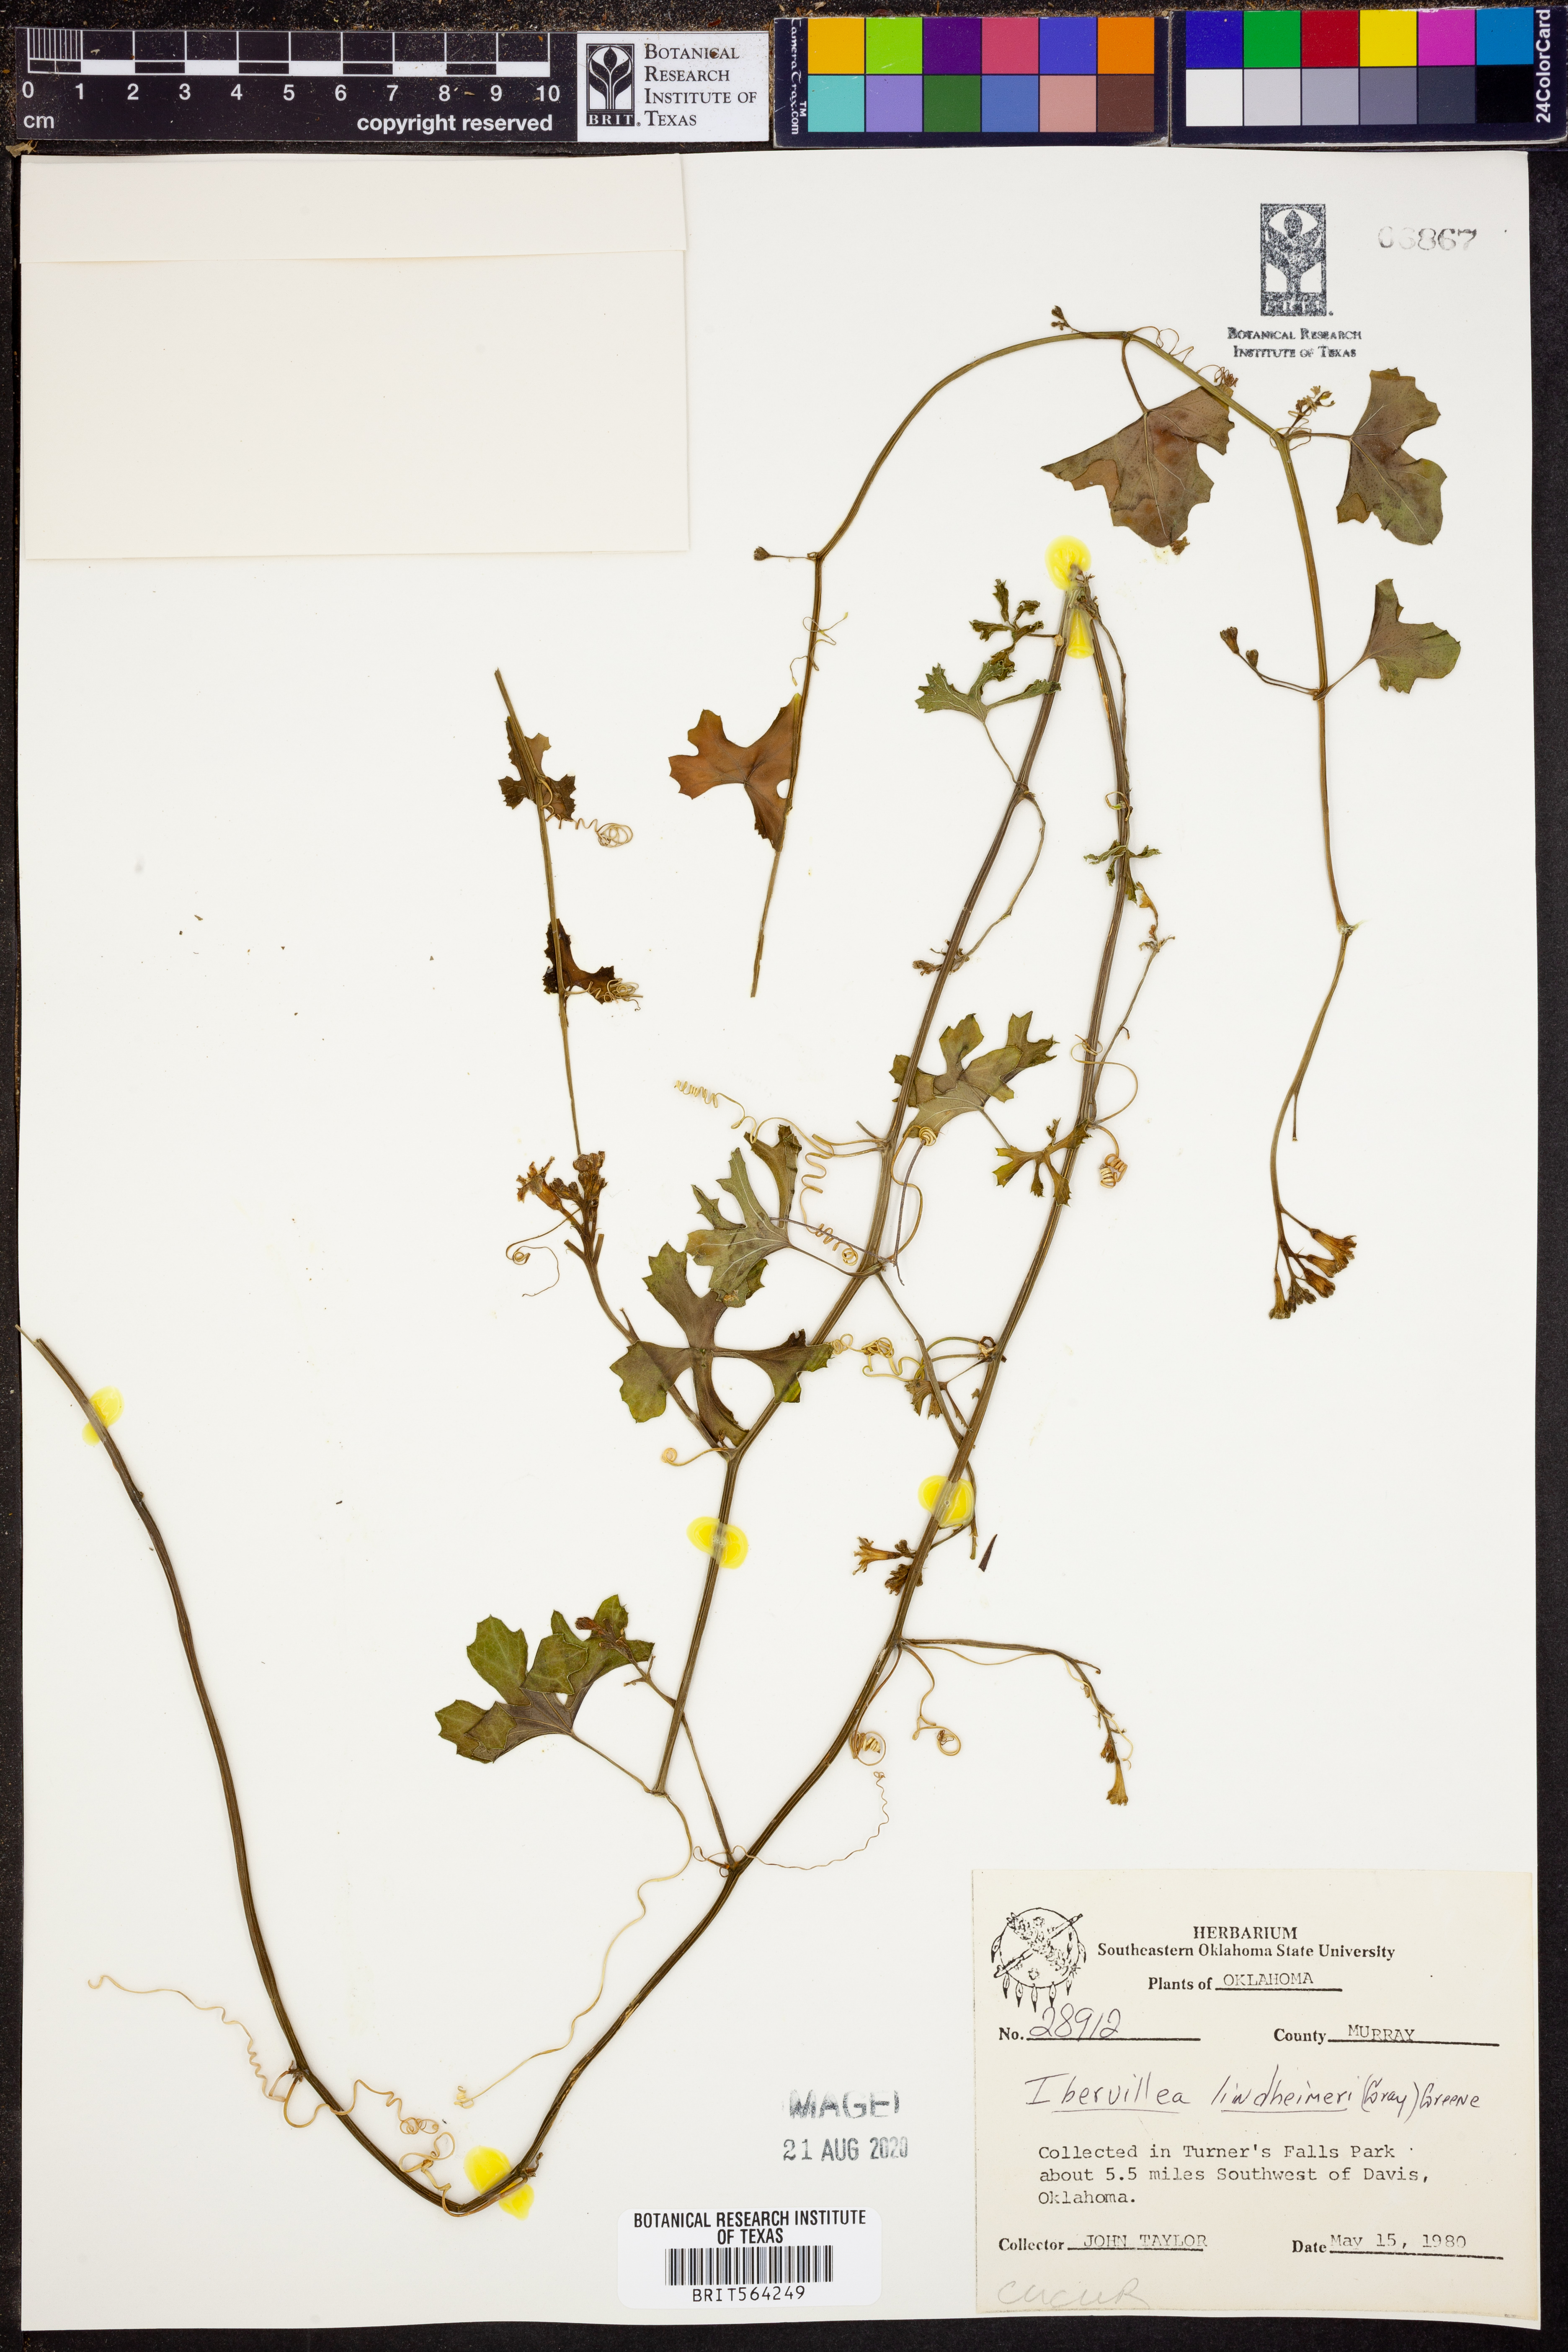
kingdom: Plantae
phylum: Tracheophyta
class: Magnoliopsida
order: Cucurbitales
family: Cucurbitaceae
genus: Ibervillea
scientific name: Ibervillea lindheimeri
